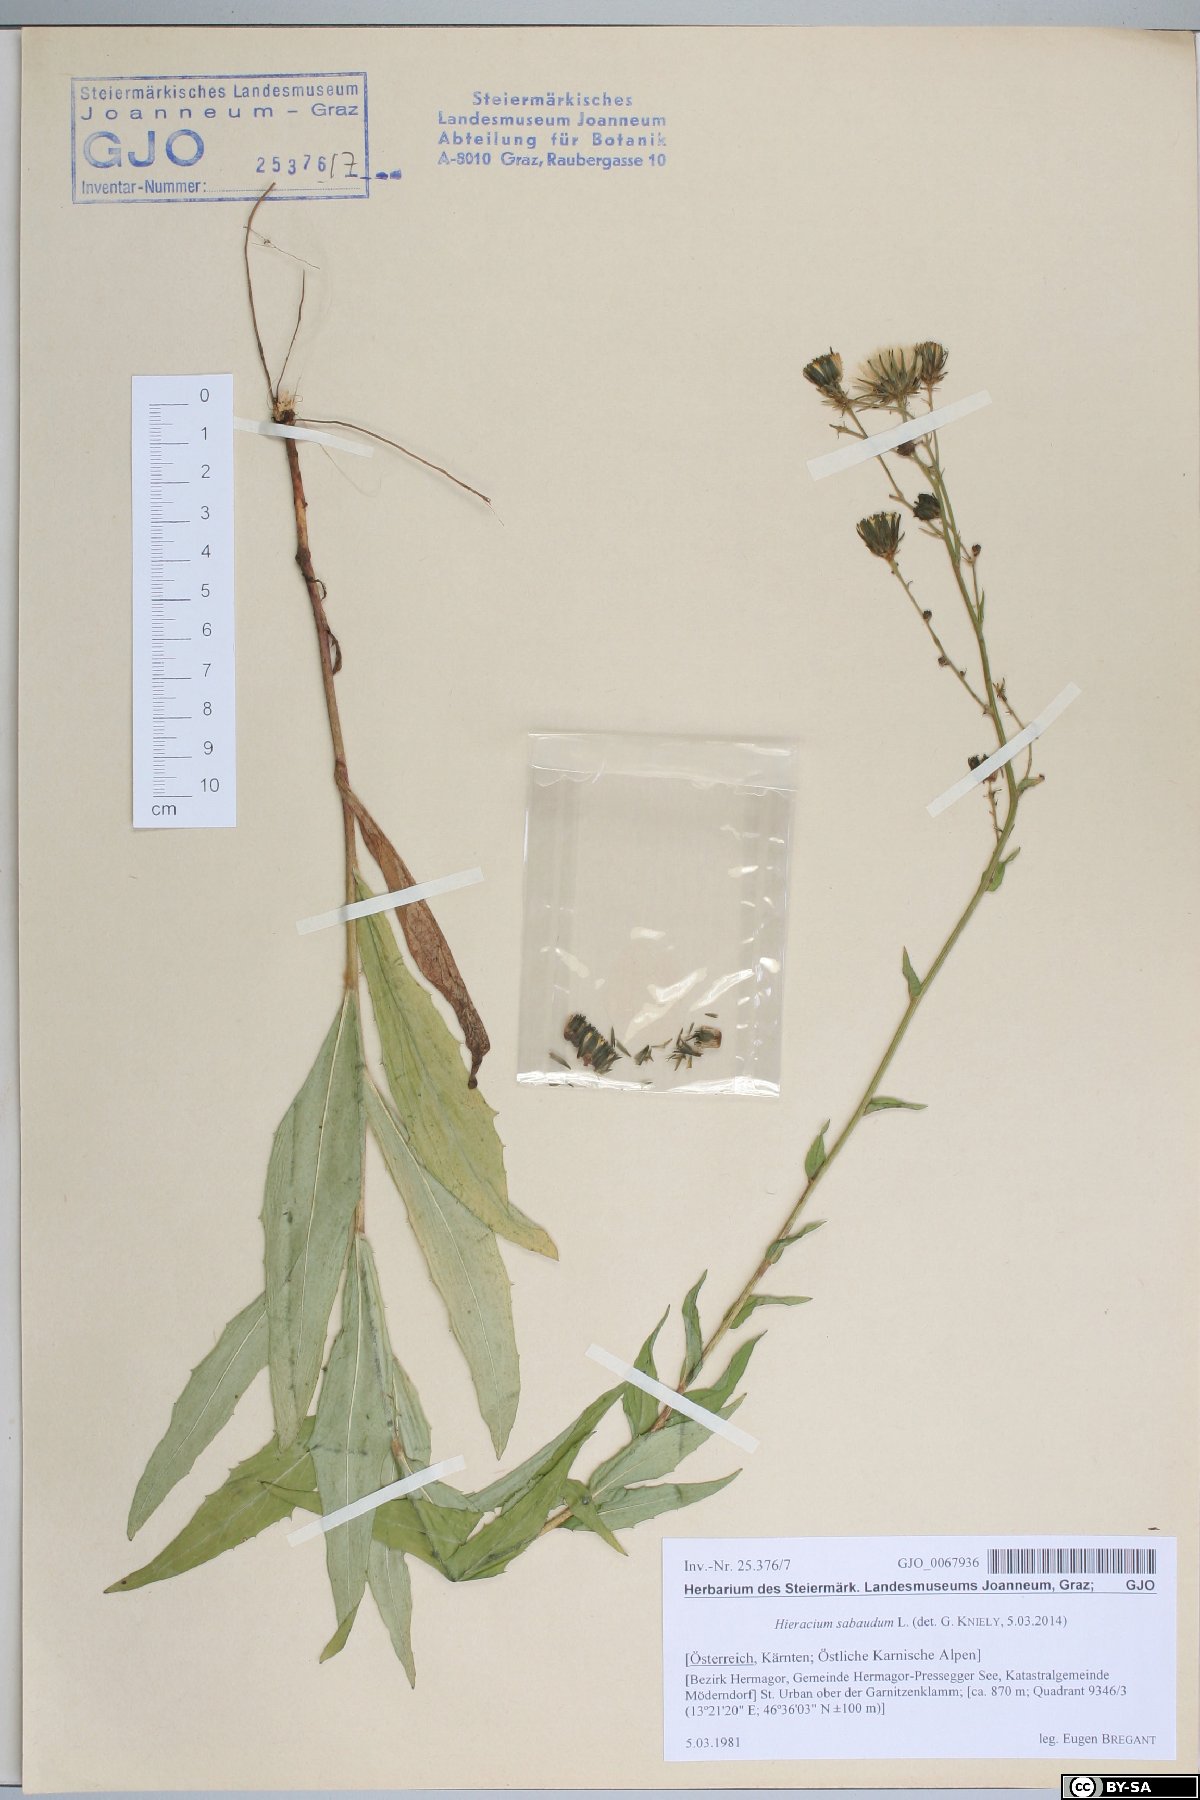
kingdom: Plantae
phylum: Tracheophyta
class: Magnoliopsida
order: Asterales
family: Asteraceae
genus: Hieracium
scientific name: Hieracium sabaudum
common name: New england hawkweed
